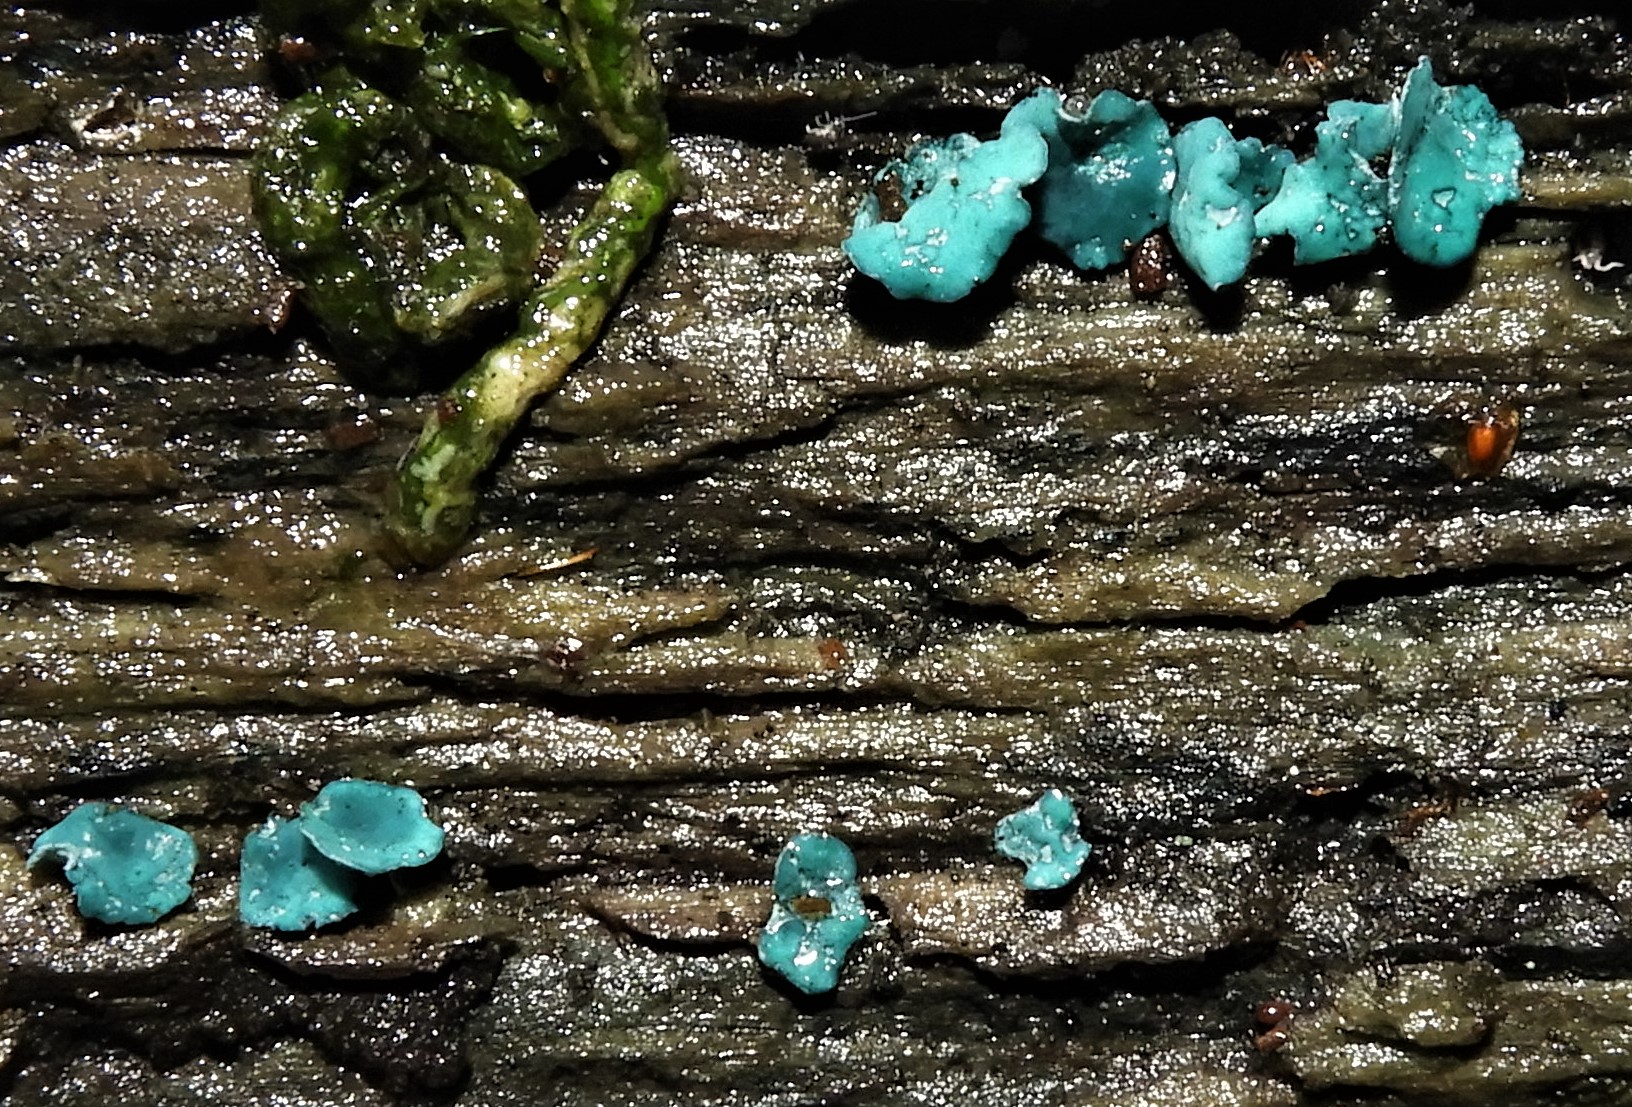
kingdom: Fungi
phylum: Ascomycota
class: Leotiomycetes
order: Helotiales
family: Chlorociboriaceae
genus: Chlorociboria
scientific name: Chlorociboria aeruginascens
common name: almindelig grønskive
